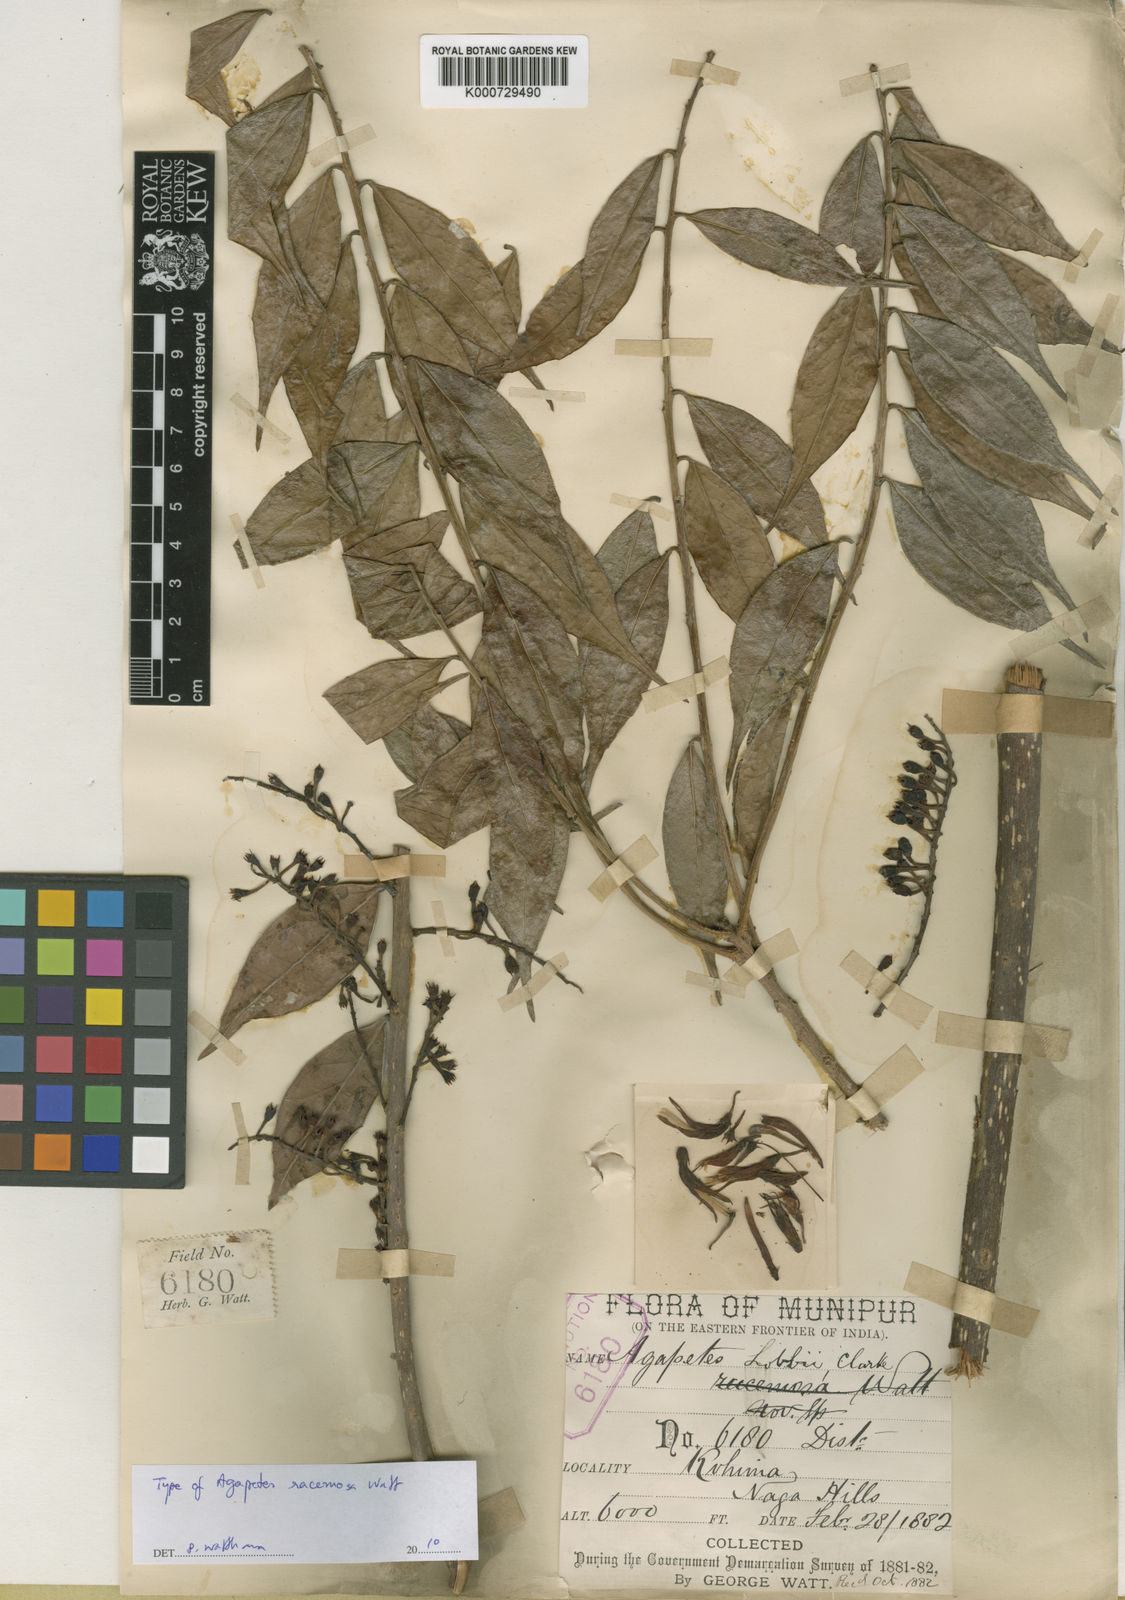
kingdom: Plantae
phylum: Tracheophyta
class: Magnoliopsida
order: Ericales
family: Ericaceae
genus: Agapetes
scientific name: Agapetes lobbii
